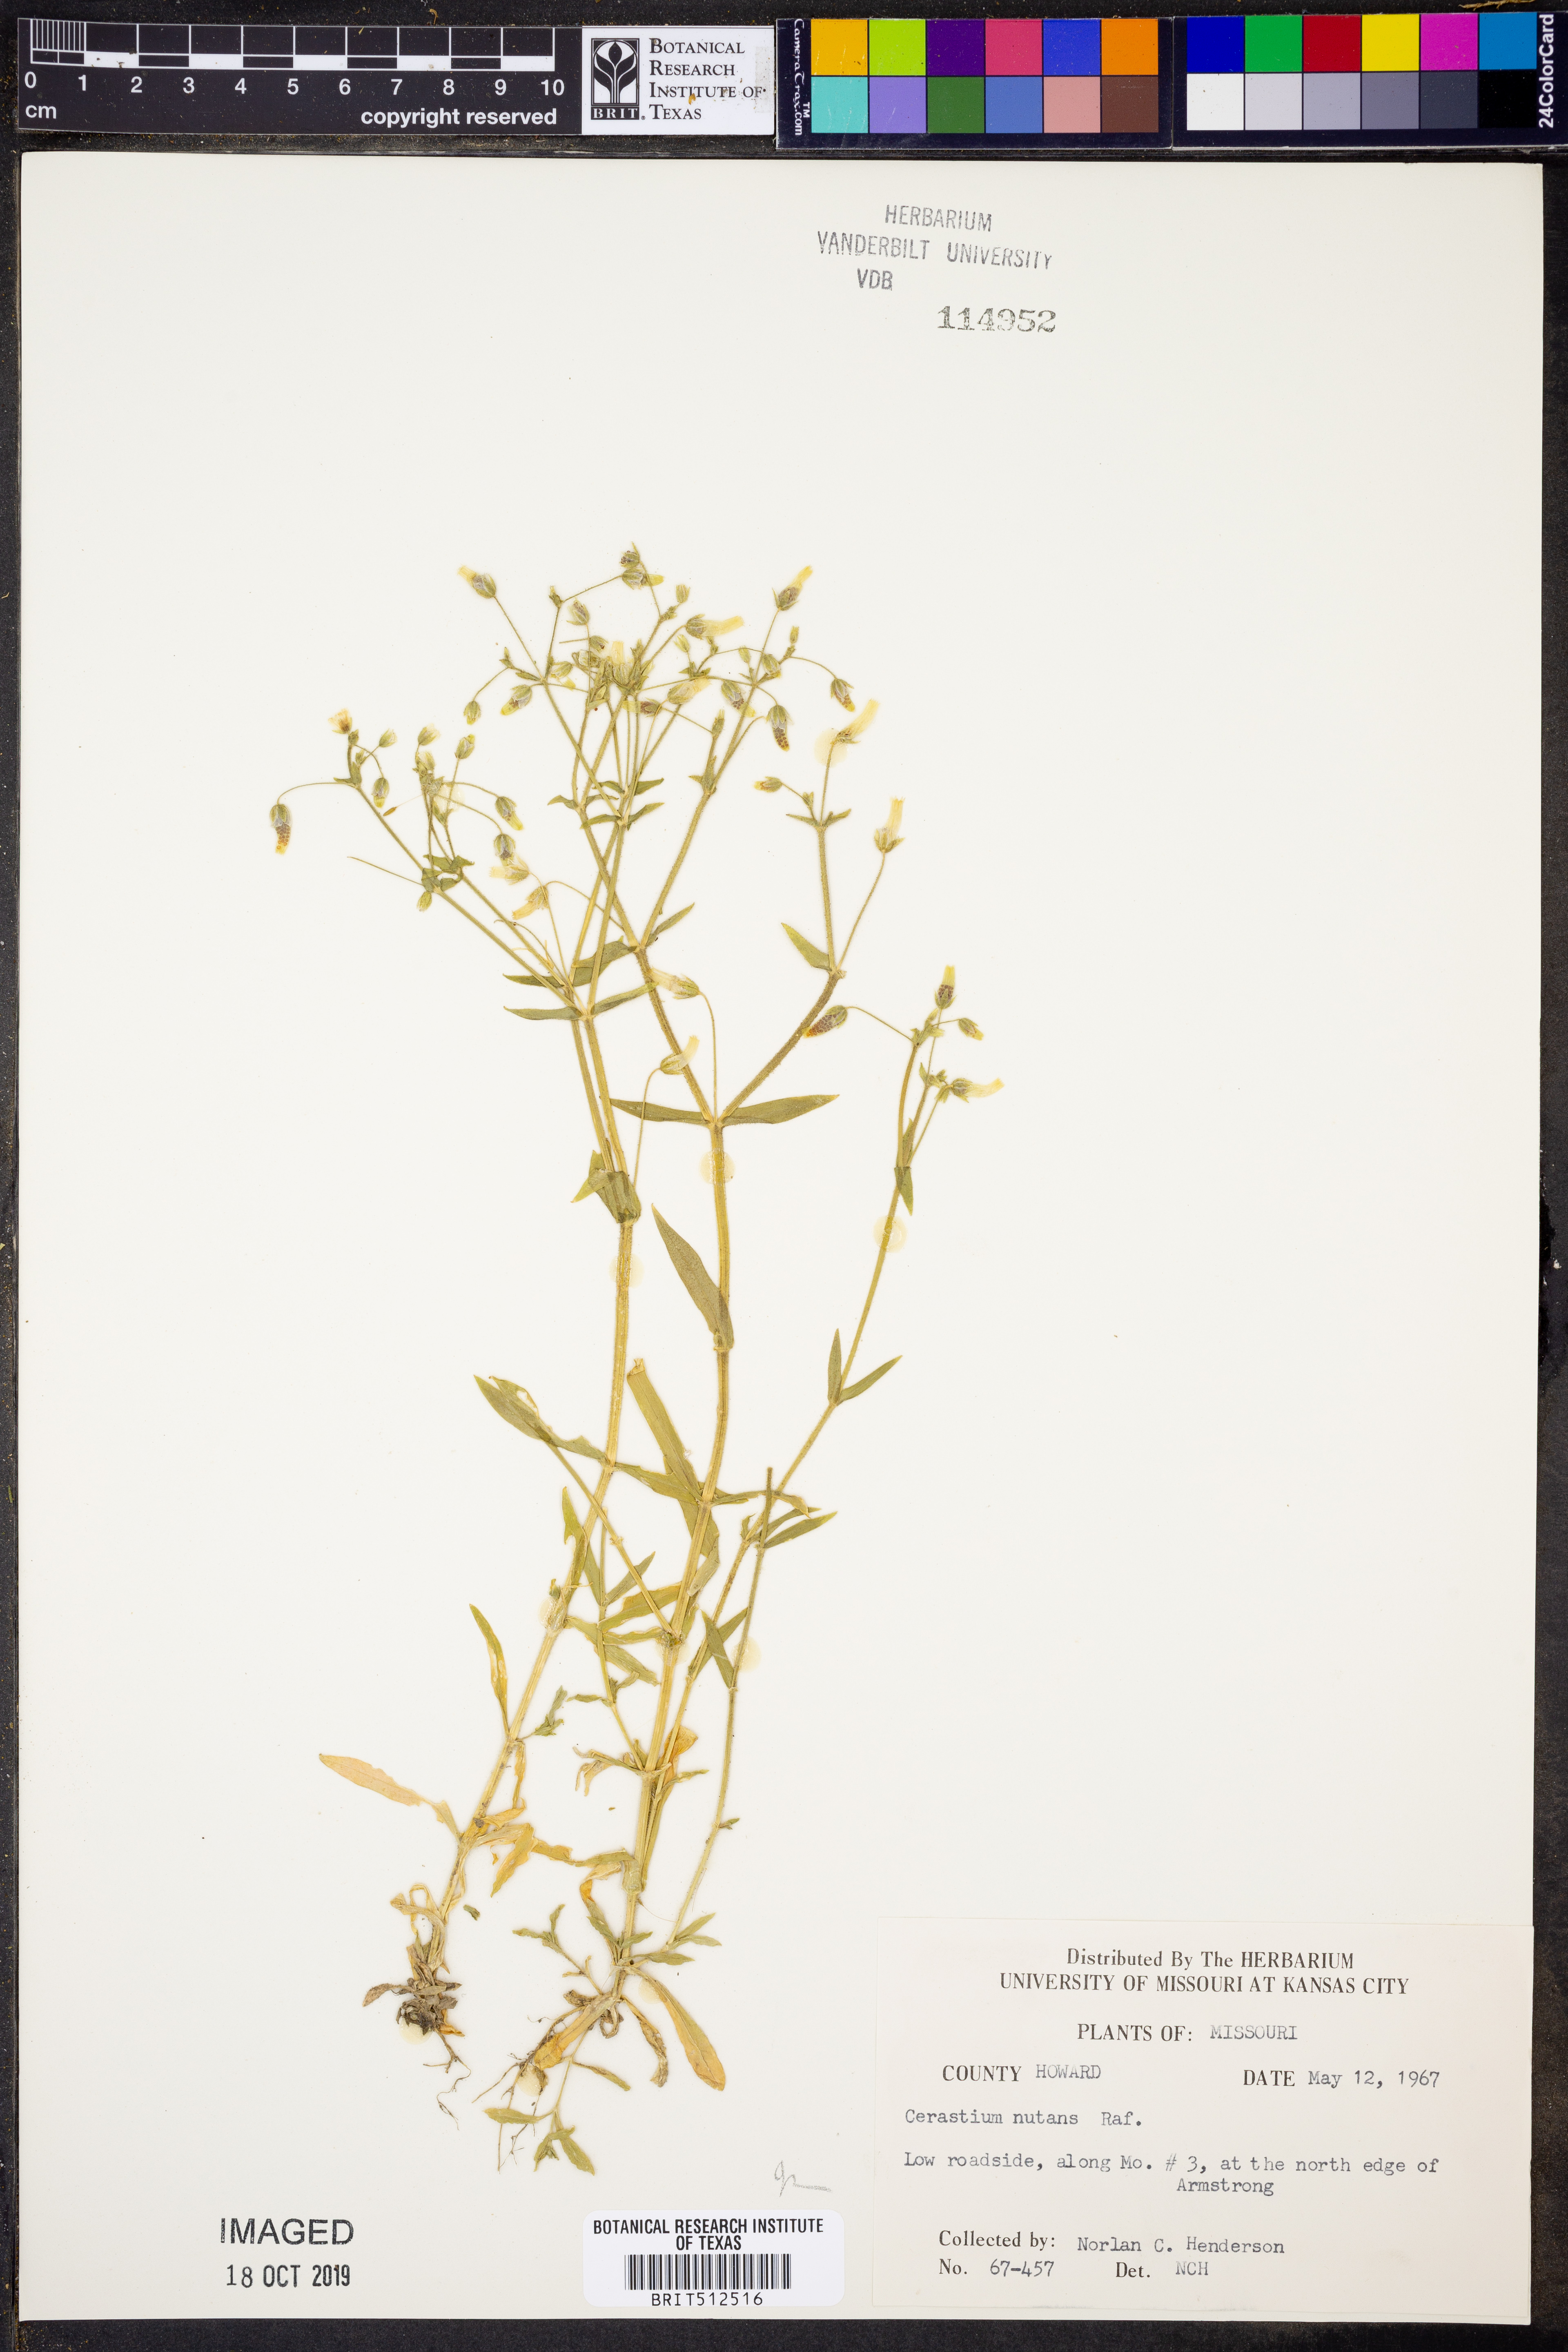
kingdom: Plantae
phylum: Tracheophyta
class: Magnoliopsida
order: Caryophyllales
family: Caryophyllaceae
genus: Cerastium
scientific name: Cerastium nutans
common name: Long-stalked chickweed
